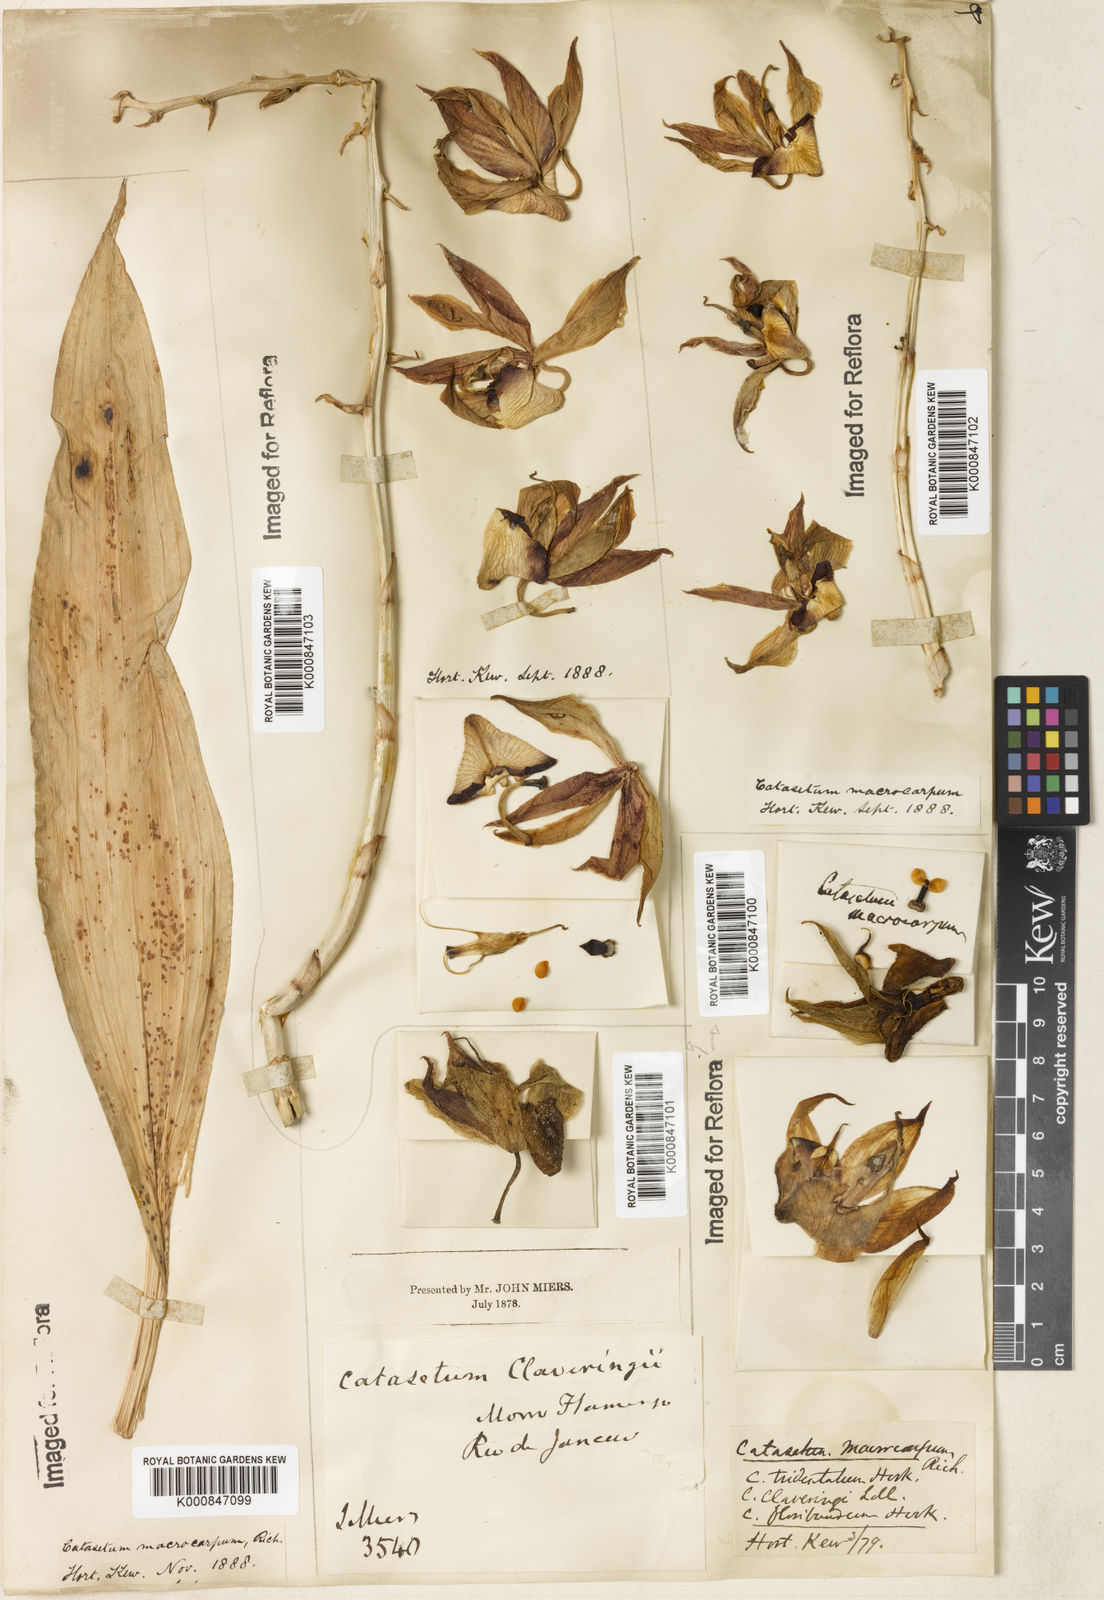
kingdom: Plantae
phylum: Tracheophyta
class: Liliopsida
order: Asparagales
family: Orchidaceae
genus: Catasetum
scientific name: Catasetum macrocarpum
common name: Jumping orchid
